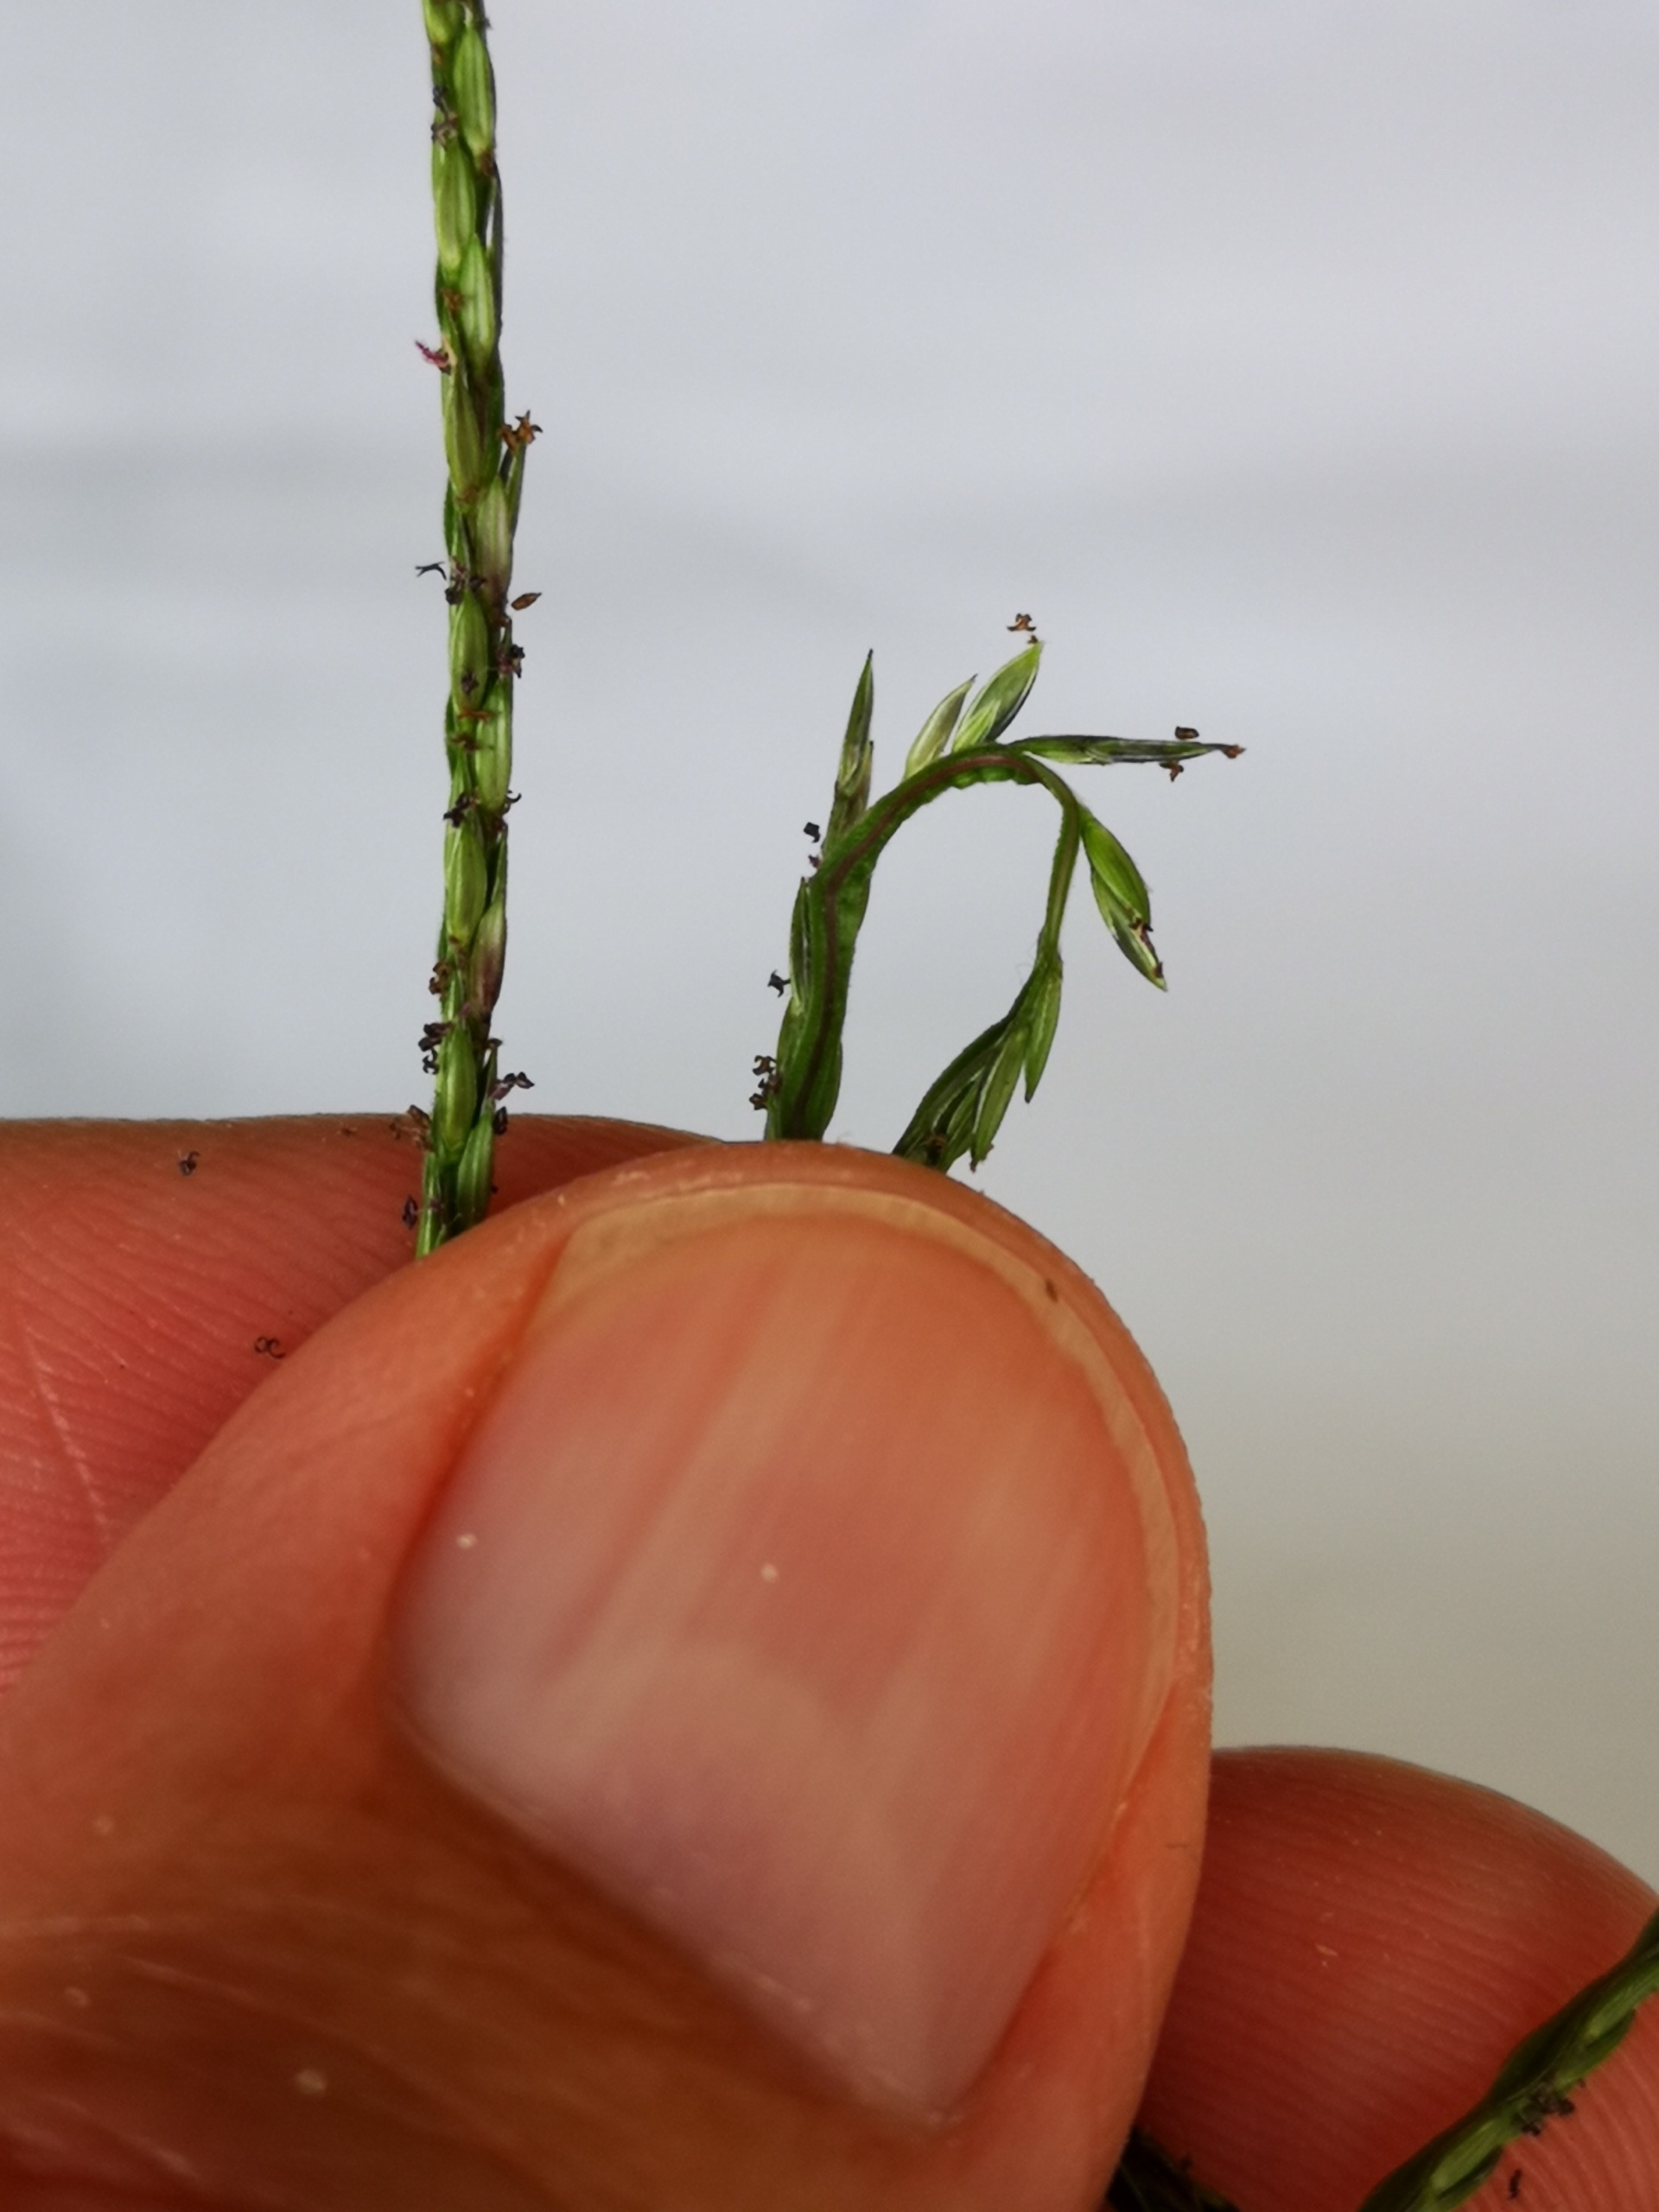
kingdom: Plantae
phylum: Tracheophyta
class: Liliopsida
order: Poales
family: Poaceae
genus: Digitaria
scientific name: Digitaria sanguinalis
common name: Blodhirse
